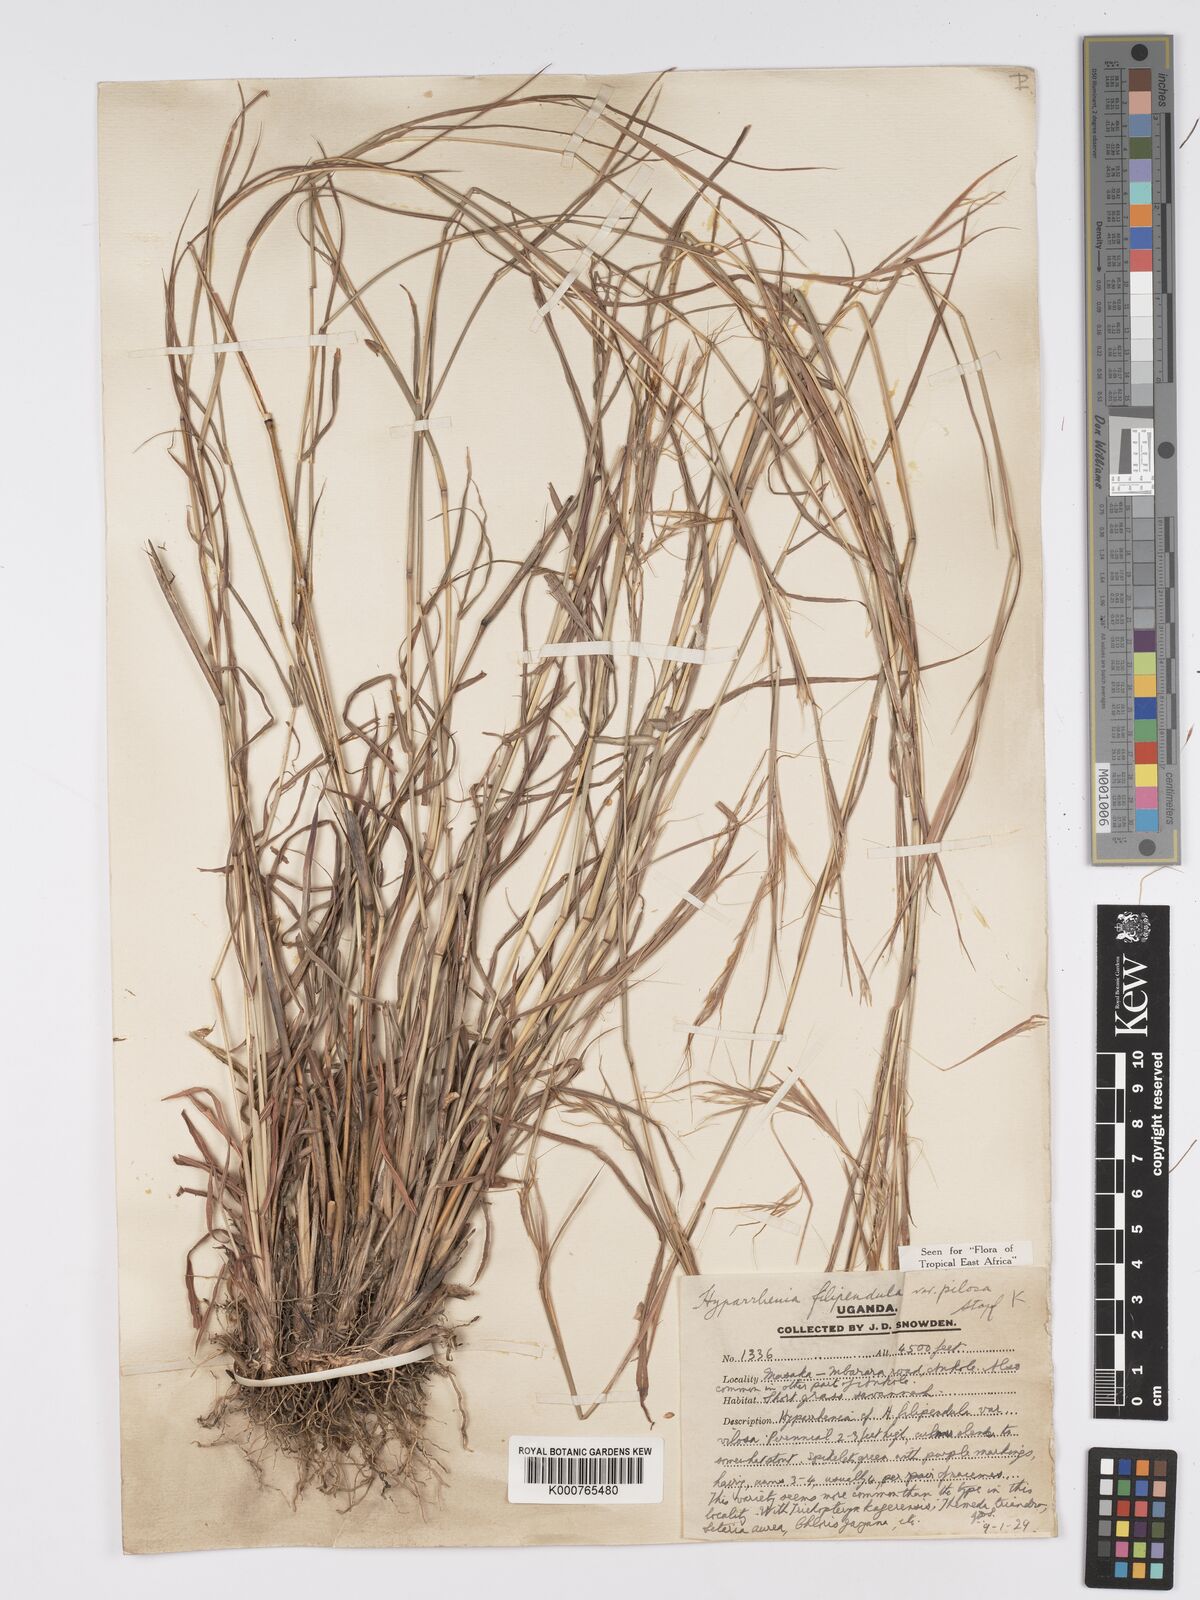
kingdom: Plantae
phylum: Tracheophyta
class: Liliopsida
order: Poales
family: Poaceae
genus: Hyparrhenia
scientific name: Hyparrhenia filipendula
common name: Tambookie grass
